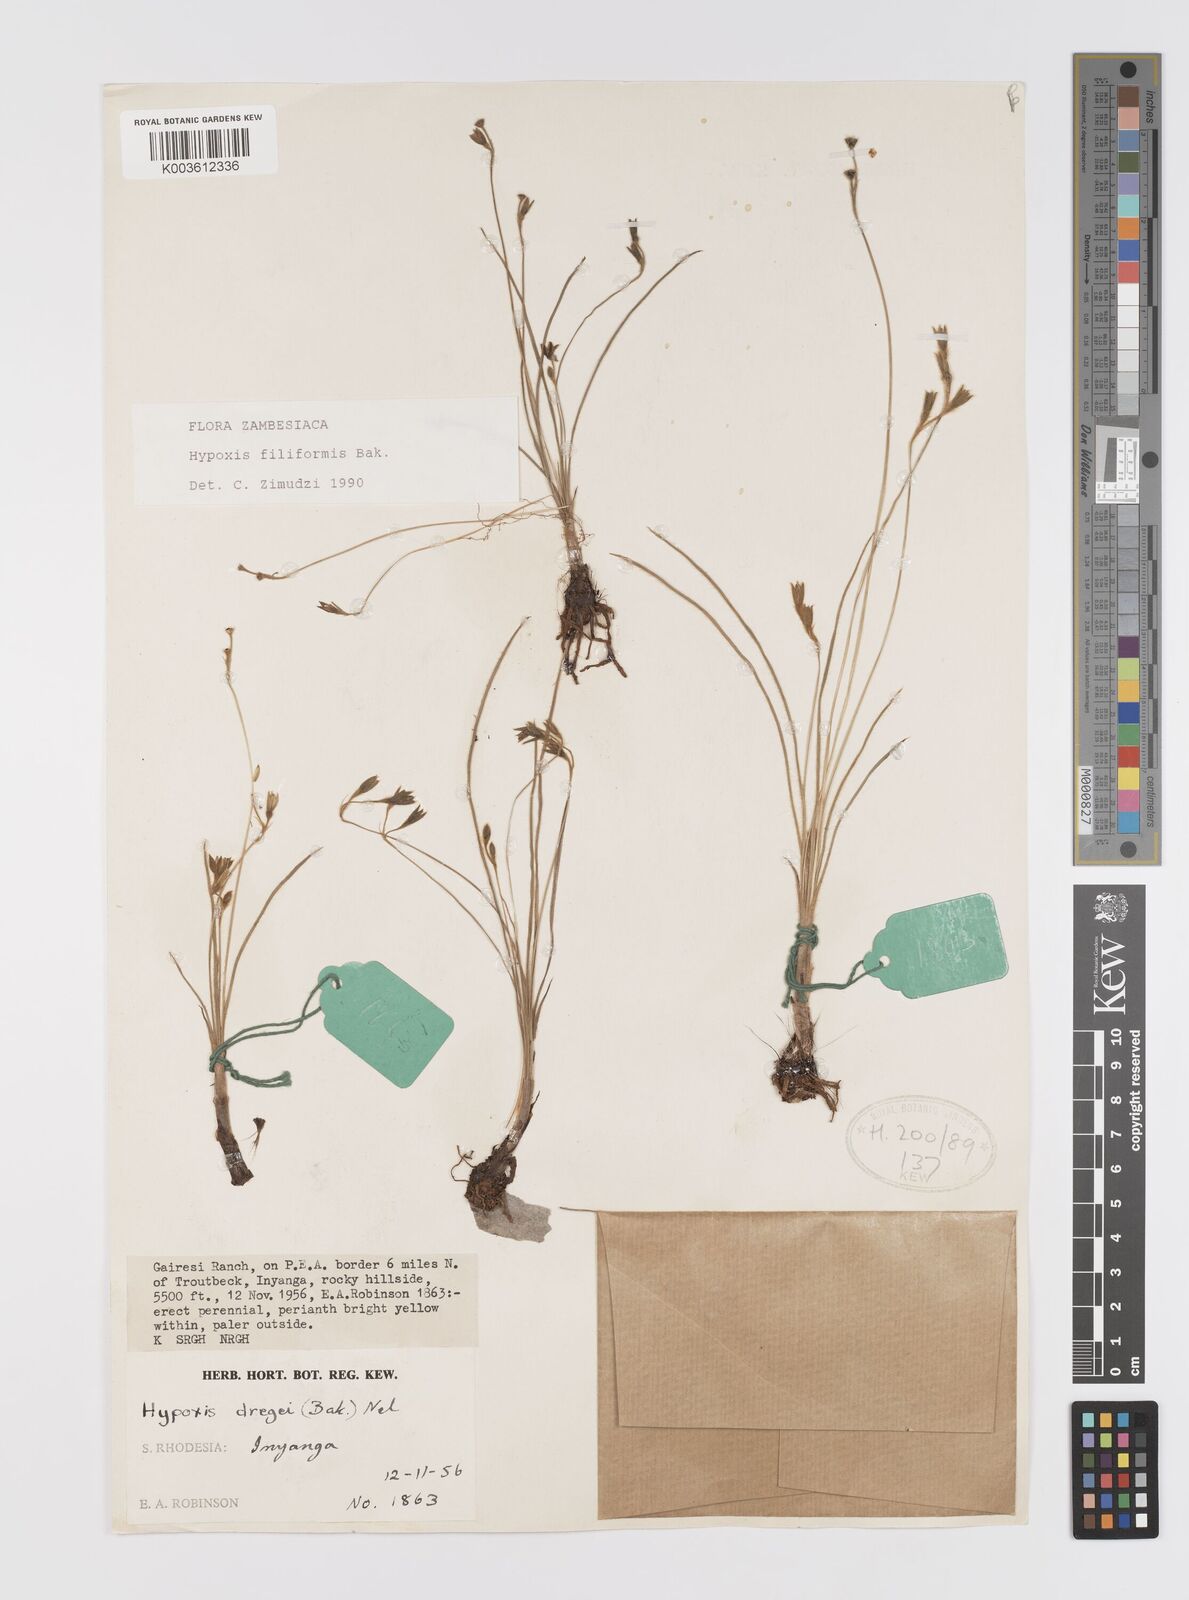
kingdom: Plantae
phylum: Tracheophyta
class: Liliopsida
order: Asparagales
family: Hypoxidaceae
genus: Hypoxis
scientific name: Hypoxis filiformis
